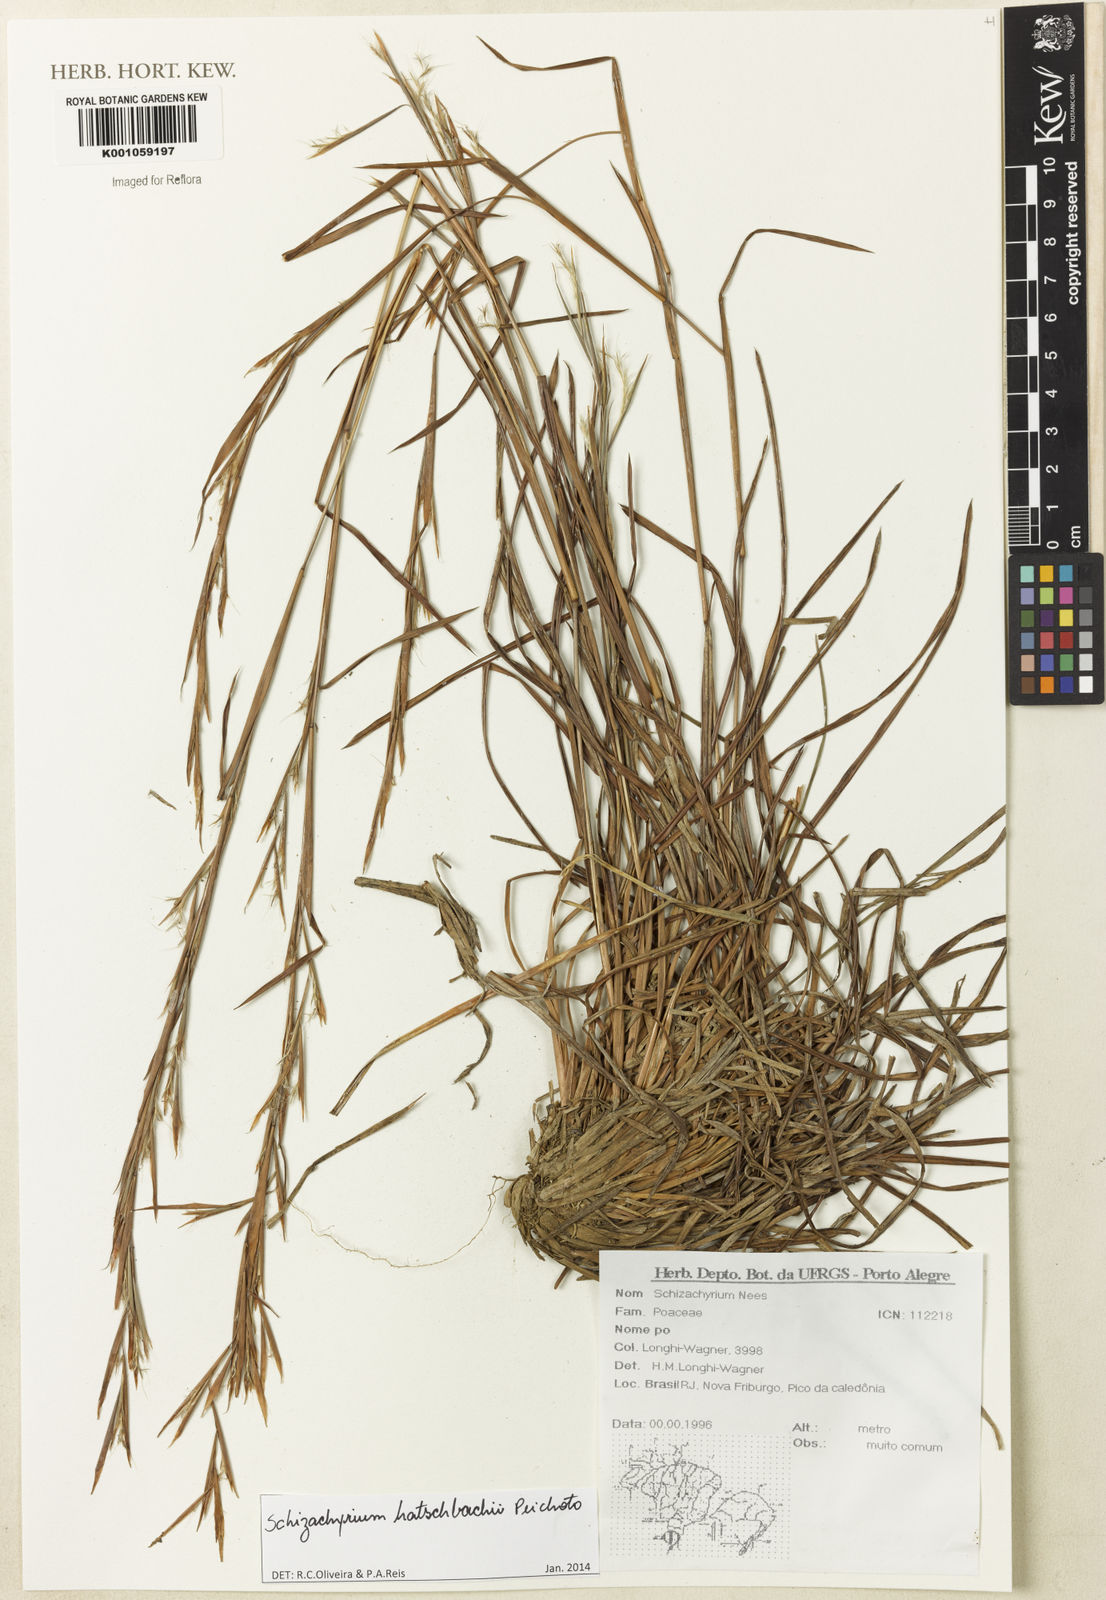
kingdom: Plantae
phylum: Tracheophyta
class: Liliopsida
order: Poales
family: Poaceae
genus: Schizachyrium
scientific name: Schizachyrium hatschbachii
